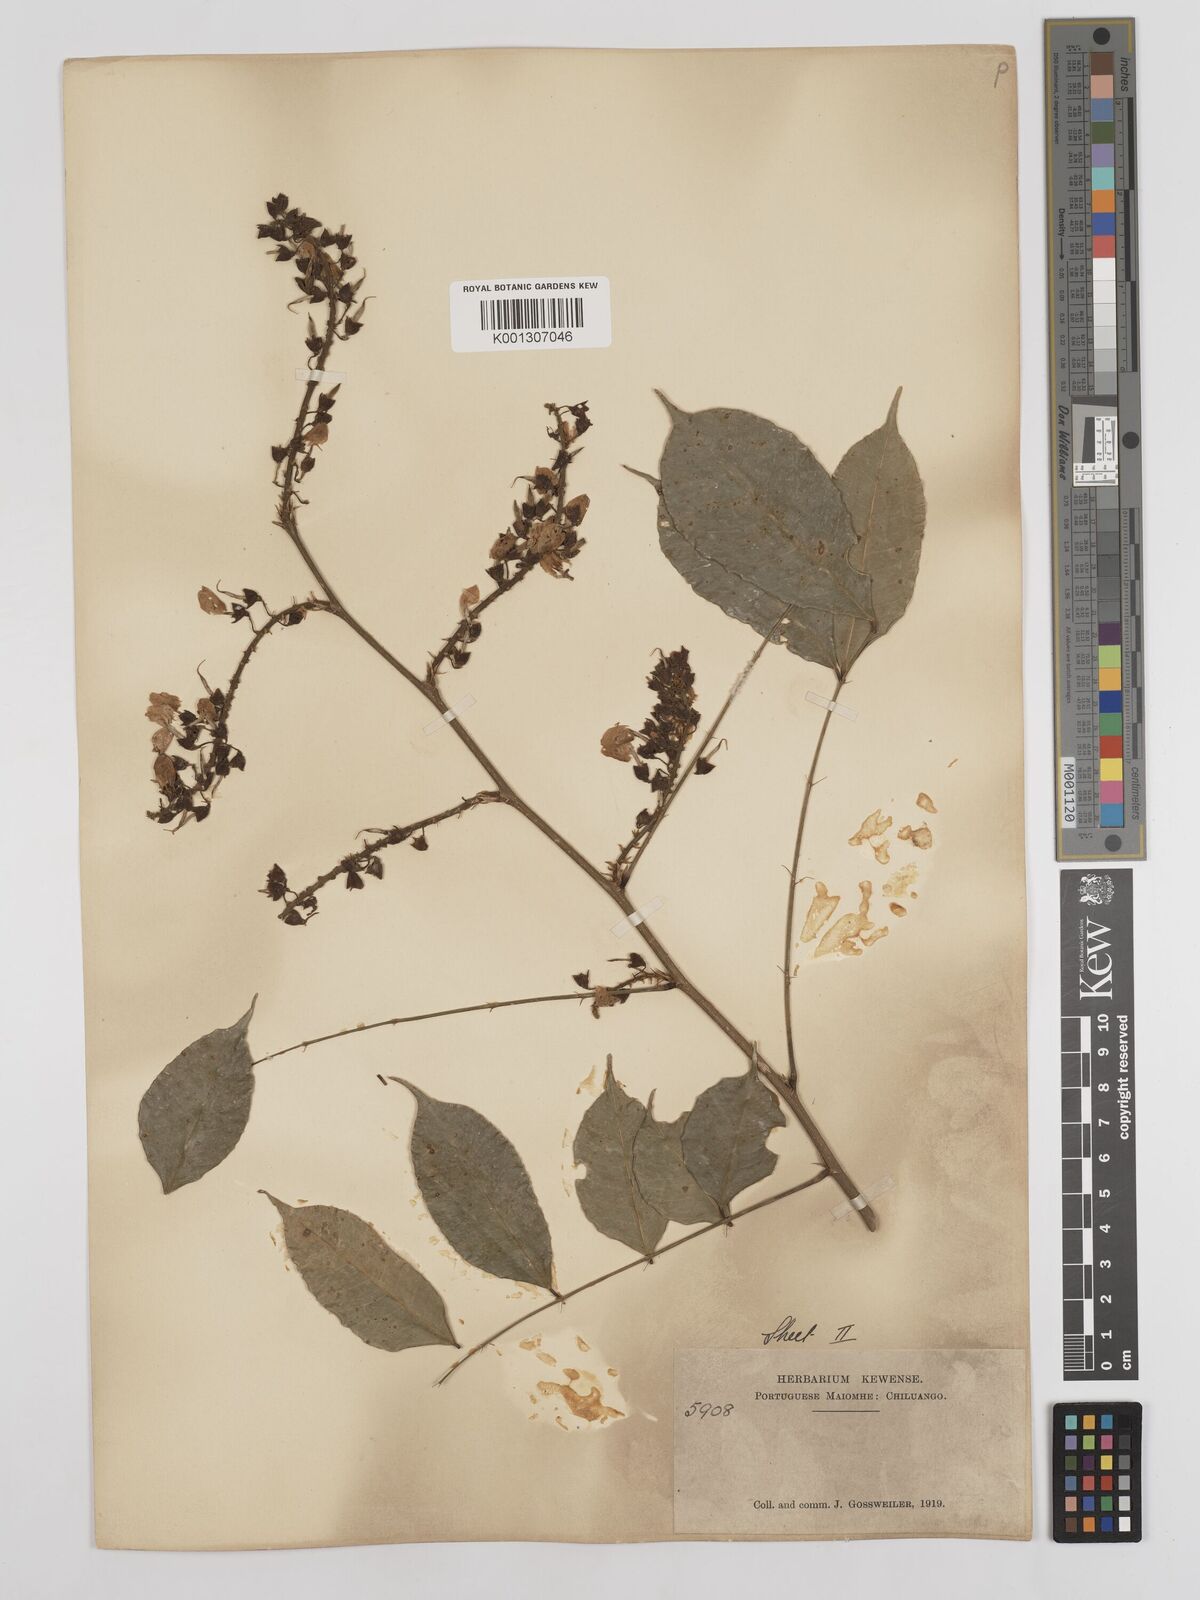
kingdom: Plantae
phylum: Tracheophyta
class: Magnoliopsida
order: Fabales
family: Fabaceae
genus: Millettia
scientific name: Millettia
